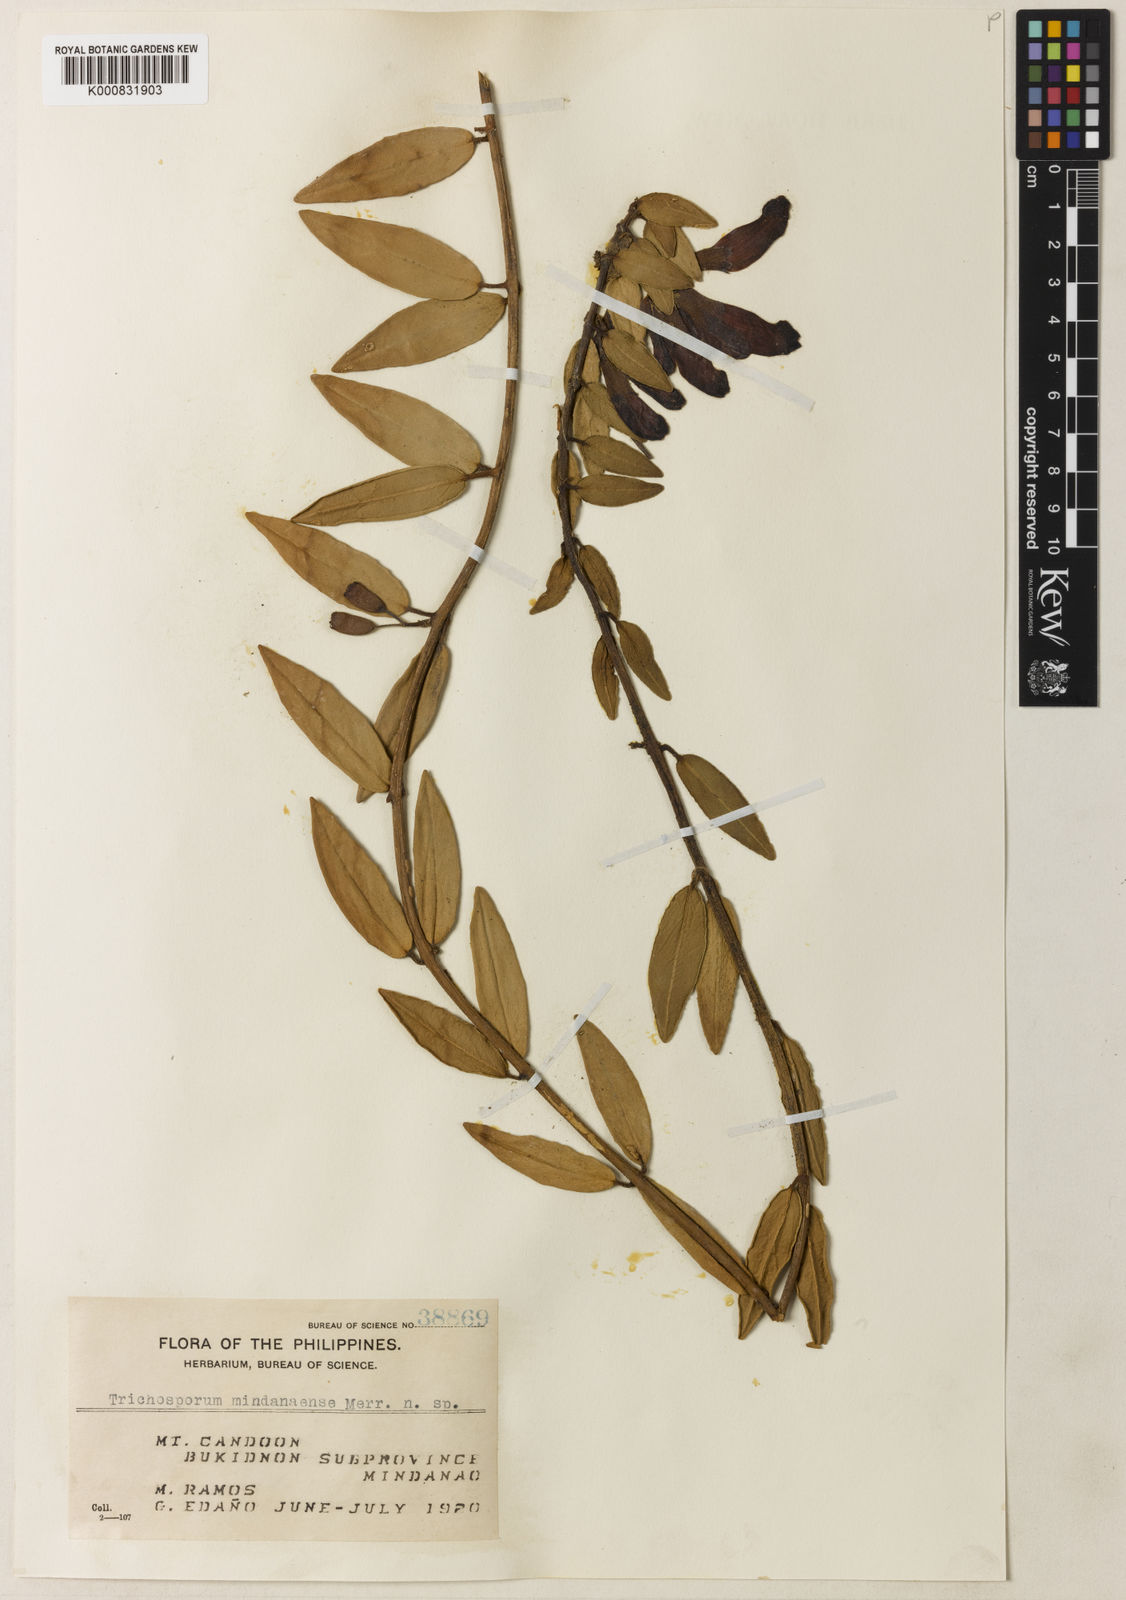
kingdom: Plantae
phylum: Tracheophyta
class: Magnoliopsida
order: Lamiales
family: Gesneriaceae
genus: Aeschynanthus
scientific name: Aeschynanthus
